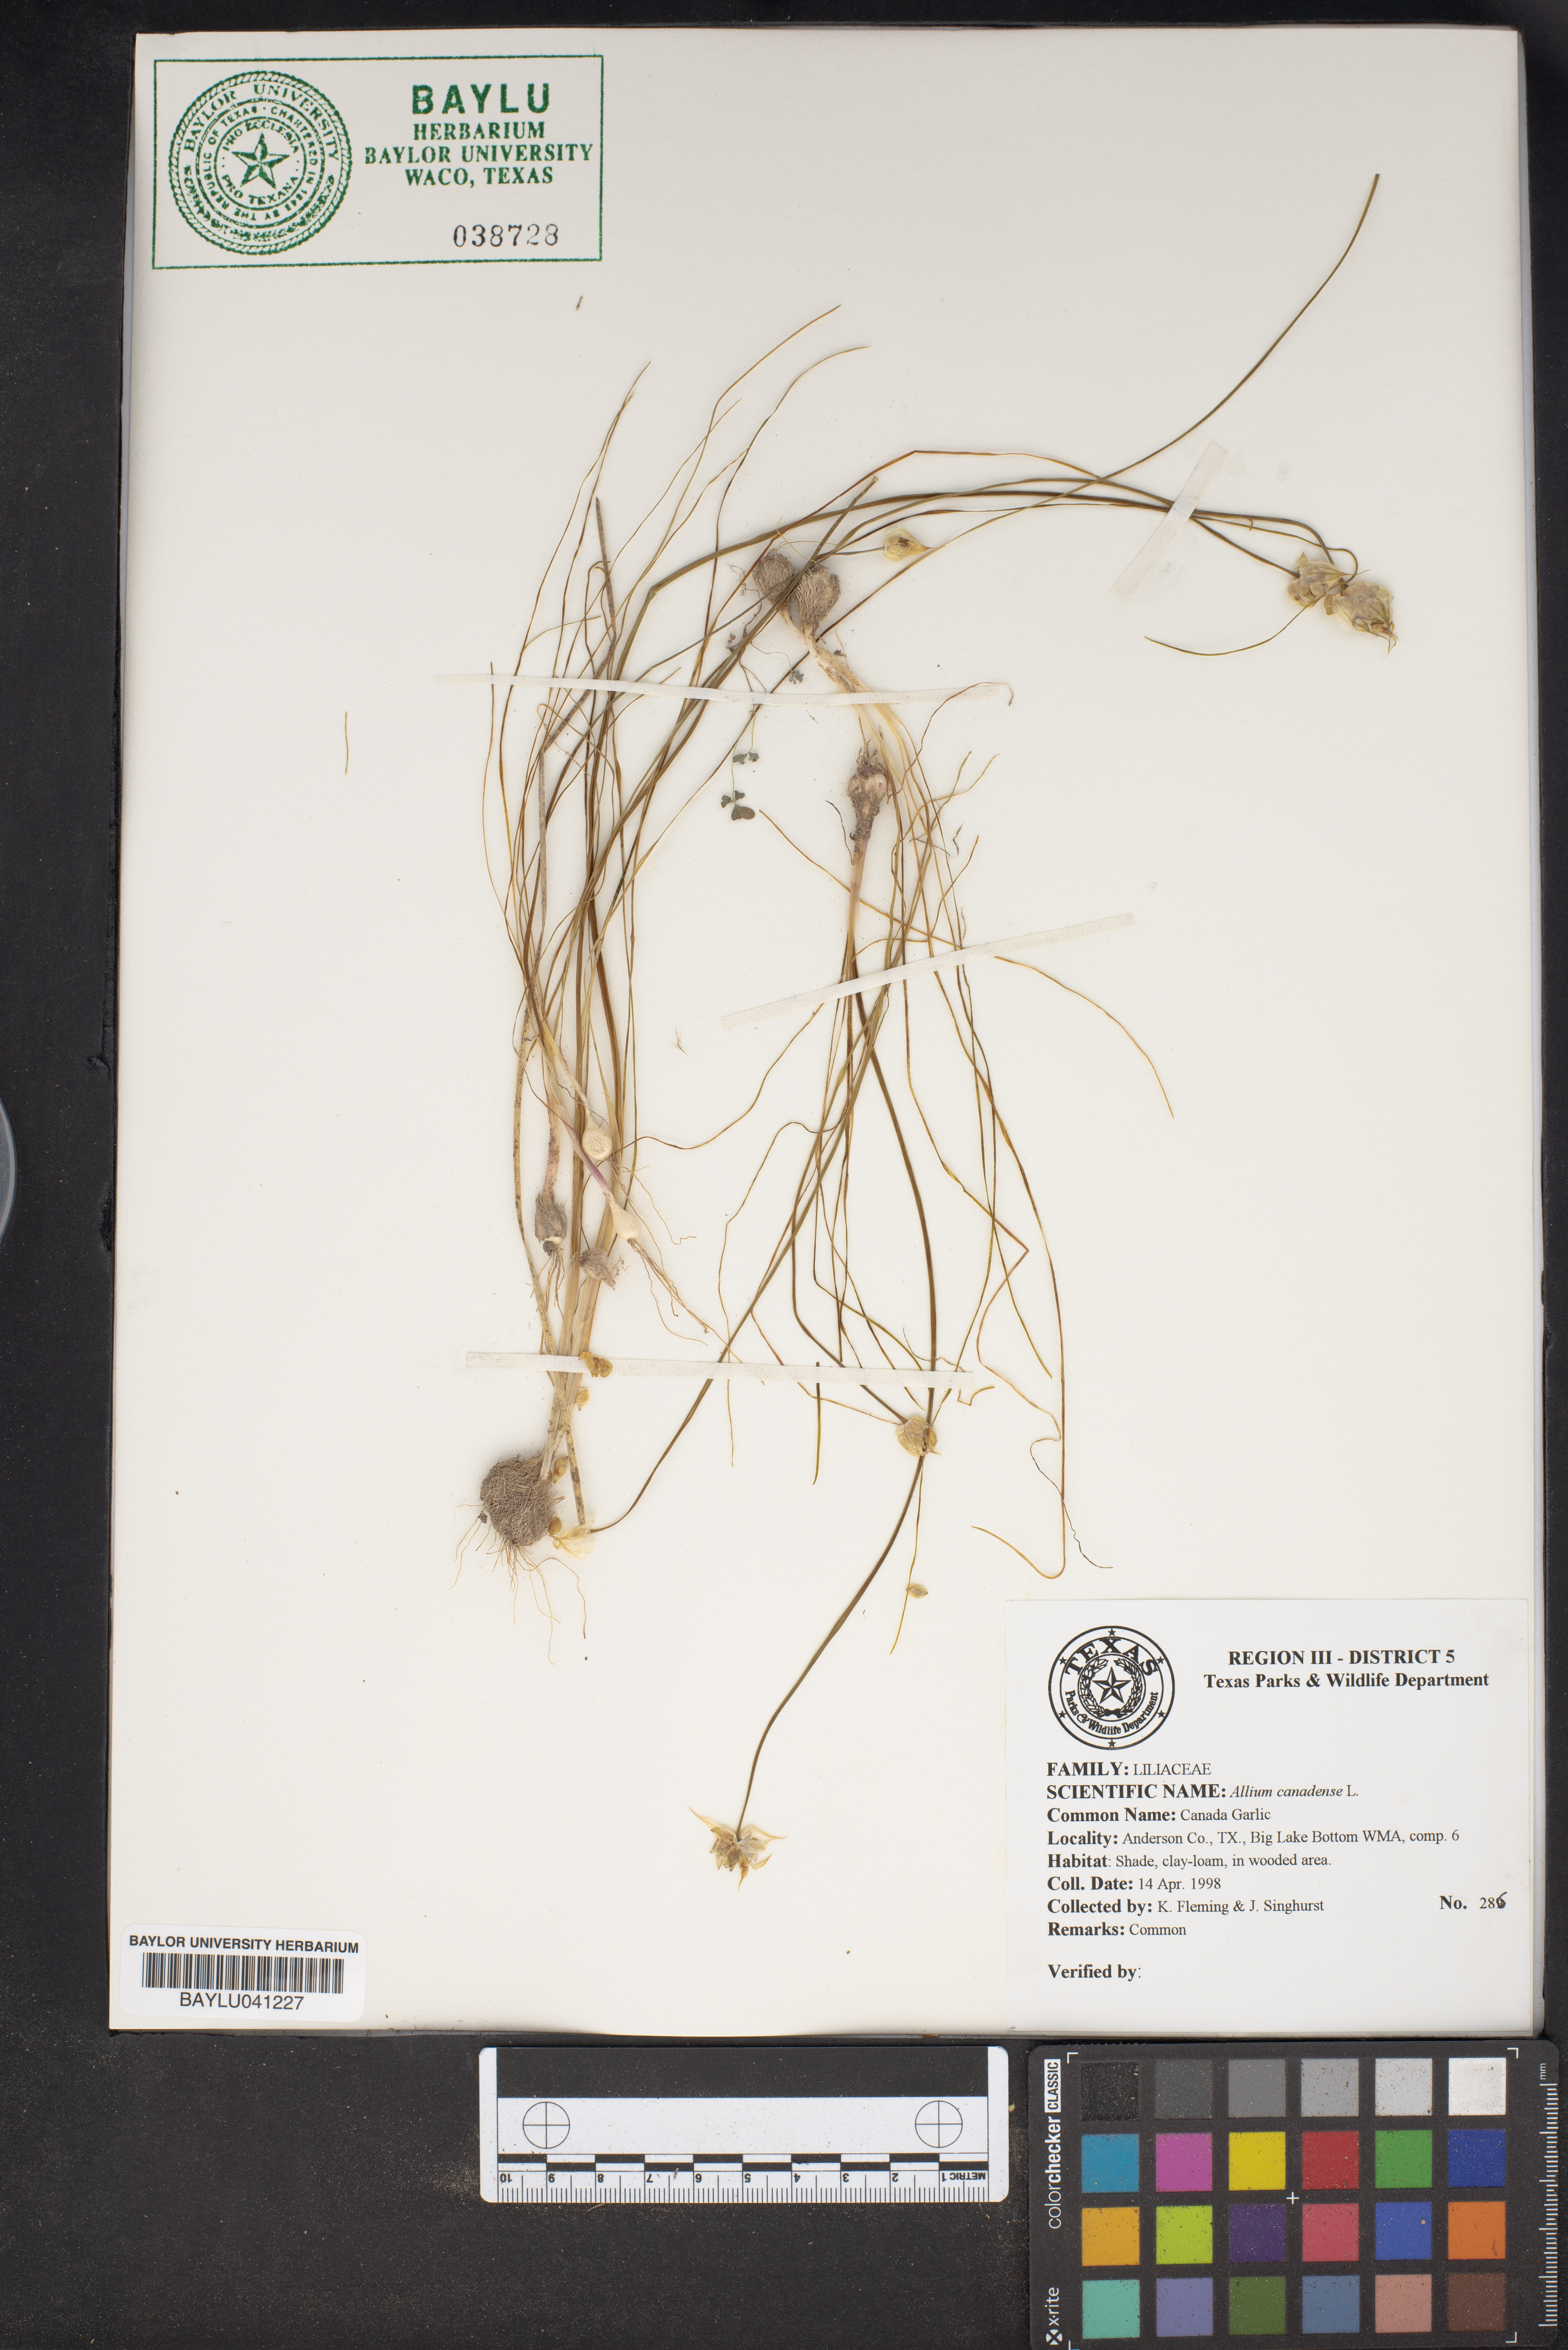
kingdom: Plantae
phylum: Tracheophyta
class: Liliopsida
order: Asparagales
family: Amaryllidaceae
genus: Allium
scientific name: Allium canadense
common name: Meadow garlic
